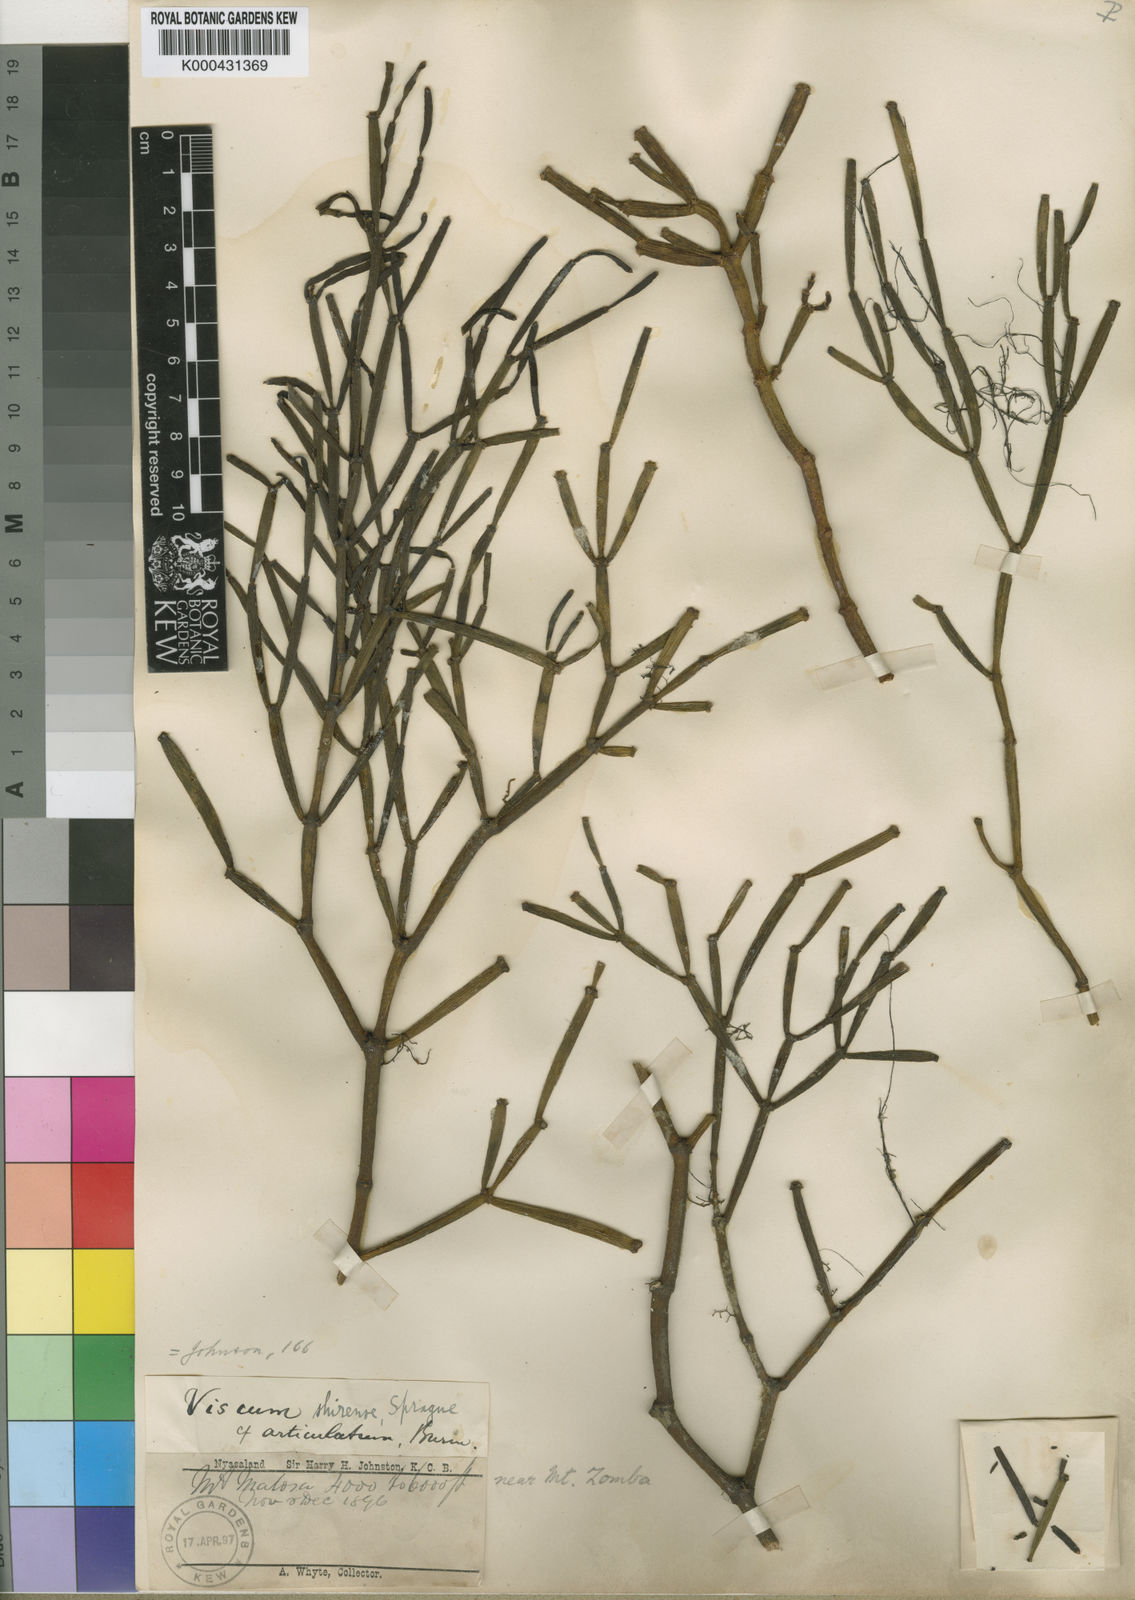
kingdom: Plantae
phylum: Tracheophyta
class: Magnoliopsida
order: Santalales
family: Viscaceae
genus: Viscum
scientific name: Viscum junodii
